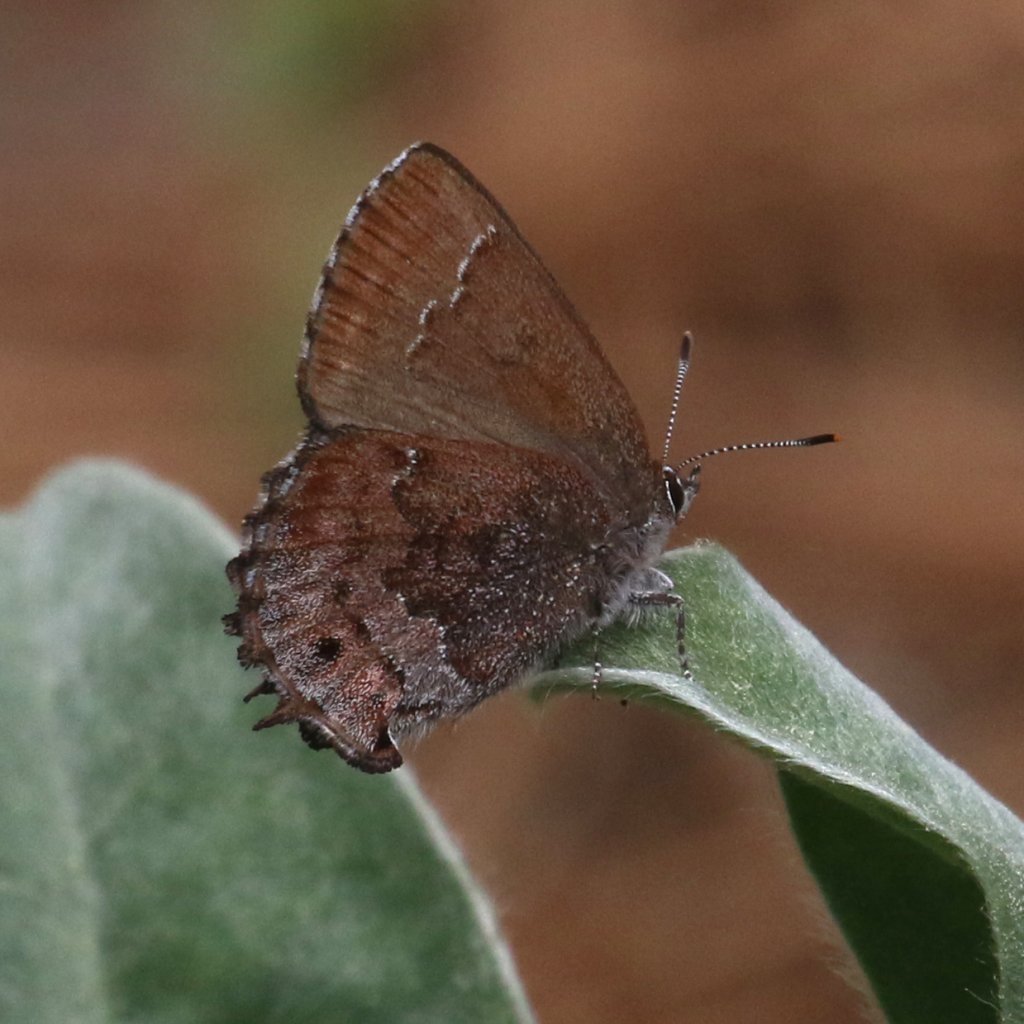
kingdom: Animalia
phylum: Arthropoda
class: Insecta
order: Lepidoptera
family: Lycaenidae
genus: Thecla
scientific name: Thecla irus
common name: Frosted Elfin
